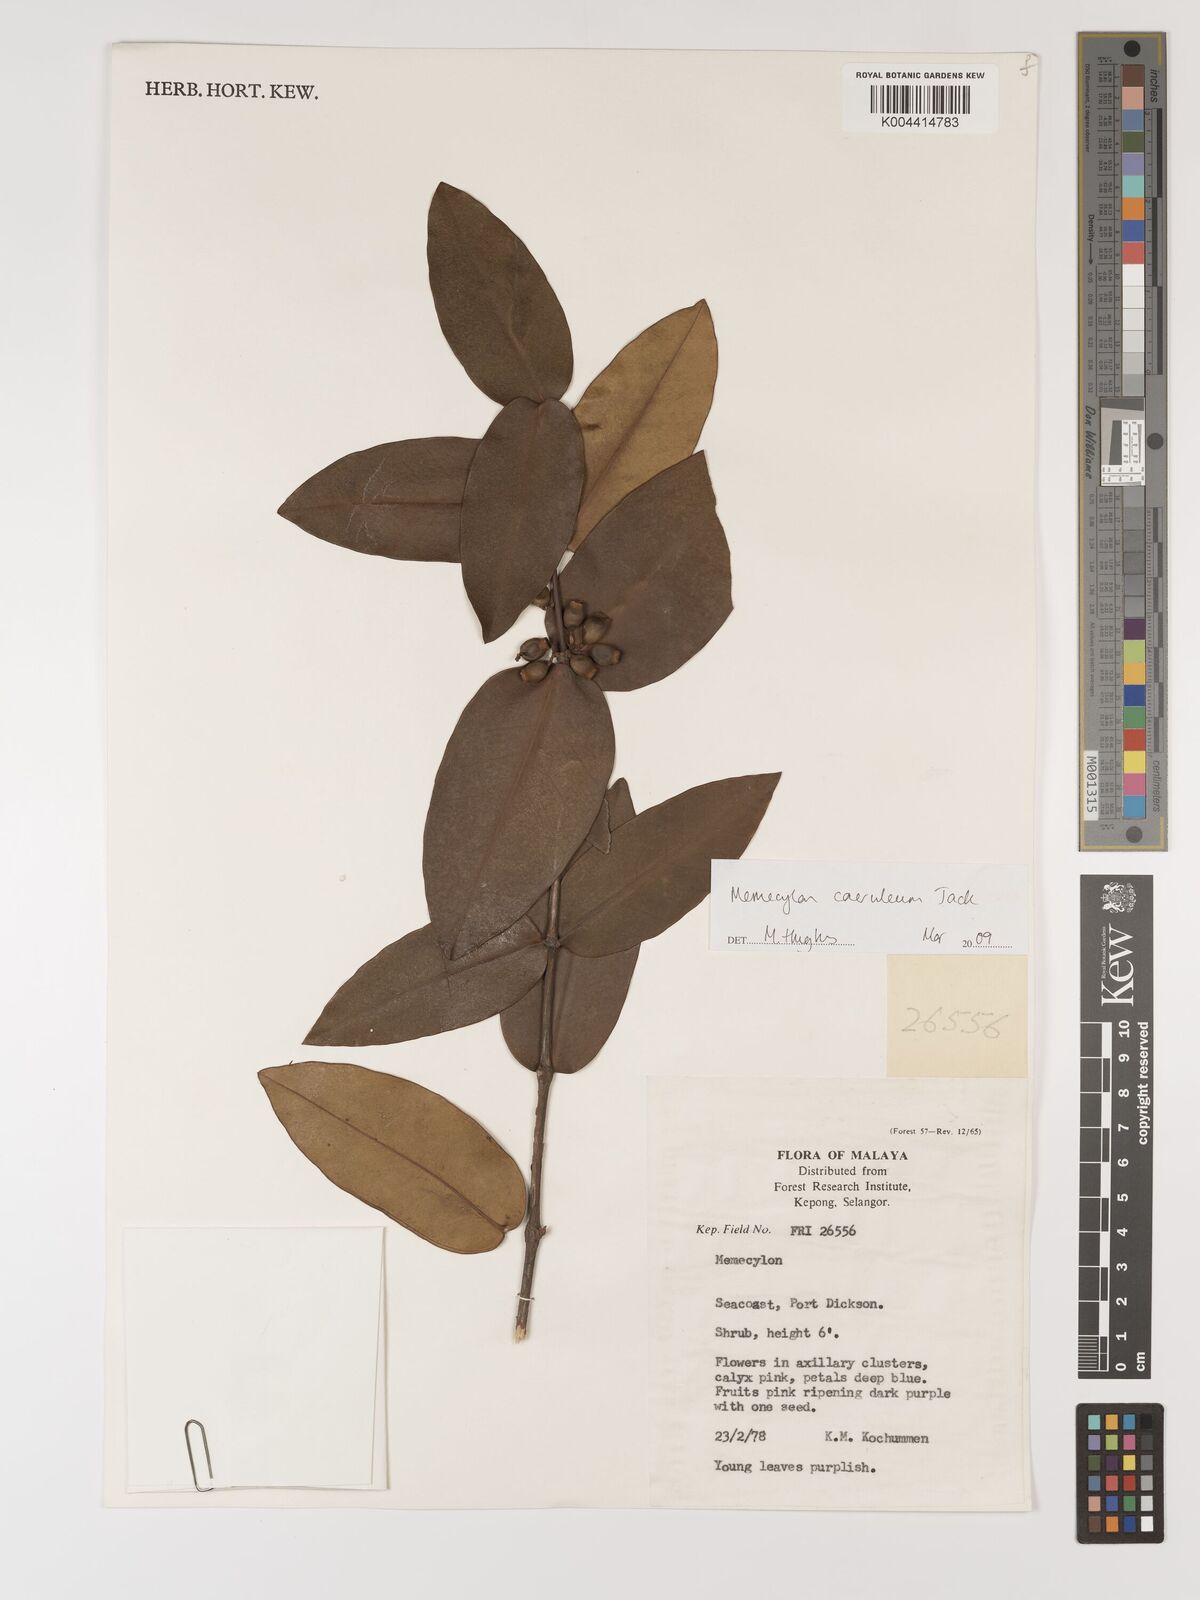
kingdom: Plantae
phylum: Tracheophyta
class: Magnoliopsida
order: Myrtales
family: Melastomataceae
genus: Memecylon
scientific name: Memecylon
